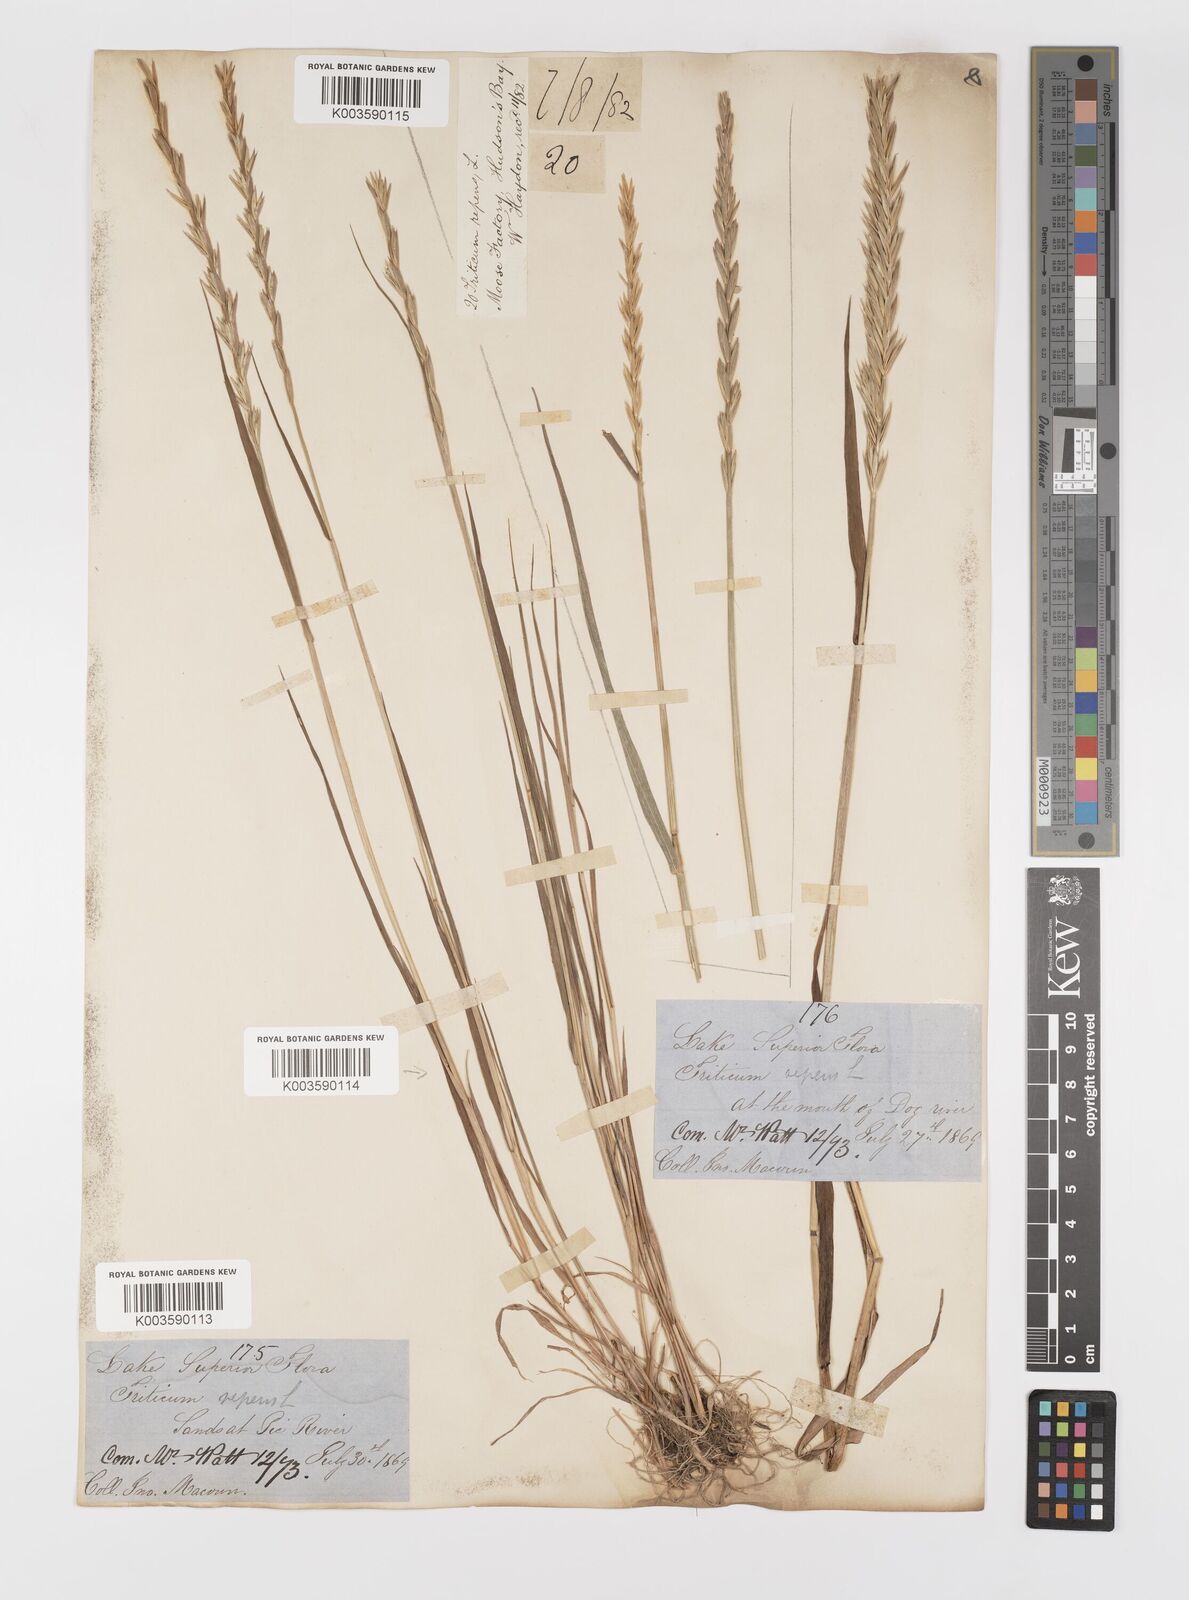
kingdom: Plantae
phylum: Tracheophyta
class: Liliopsida
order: Poales
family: Poaceae
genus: Elymus
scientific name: Elymus repens
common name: Quackgrass
